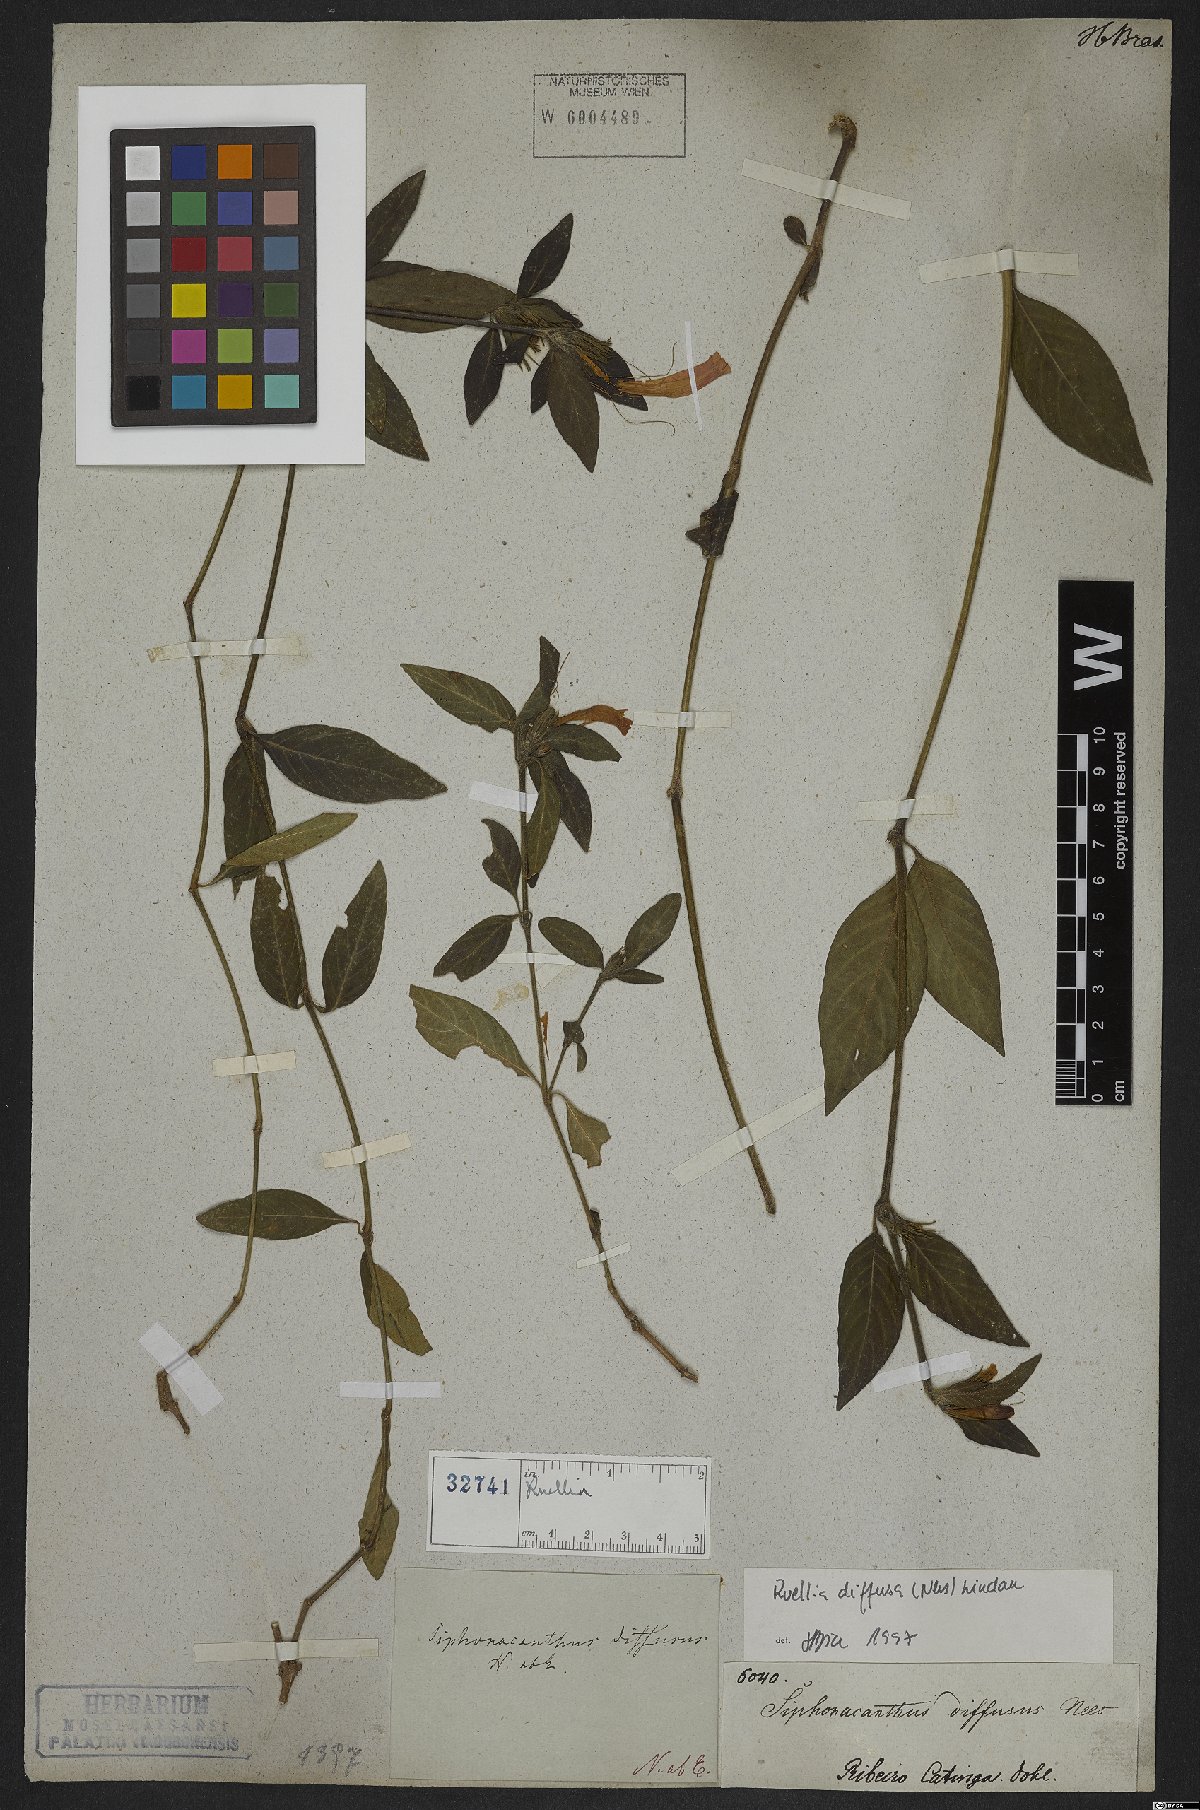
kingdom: Plantae
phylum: Tracheophyta
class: Magnoliopsida
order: Lamiales
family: Acanthaceae
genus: Strobilanthes
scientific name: Strobilanthes
